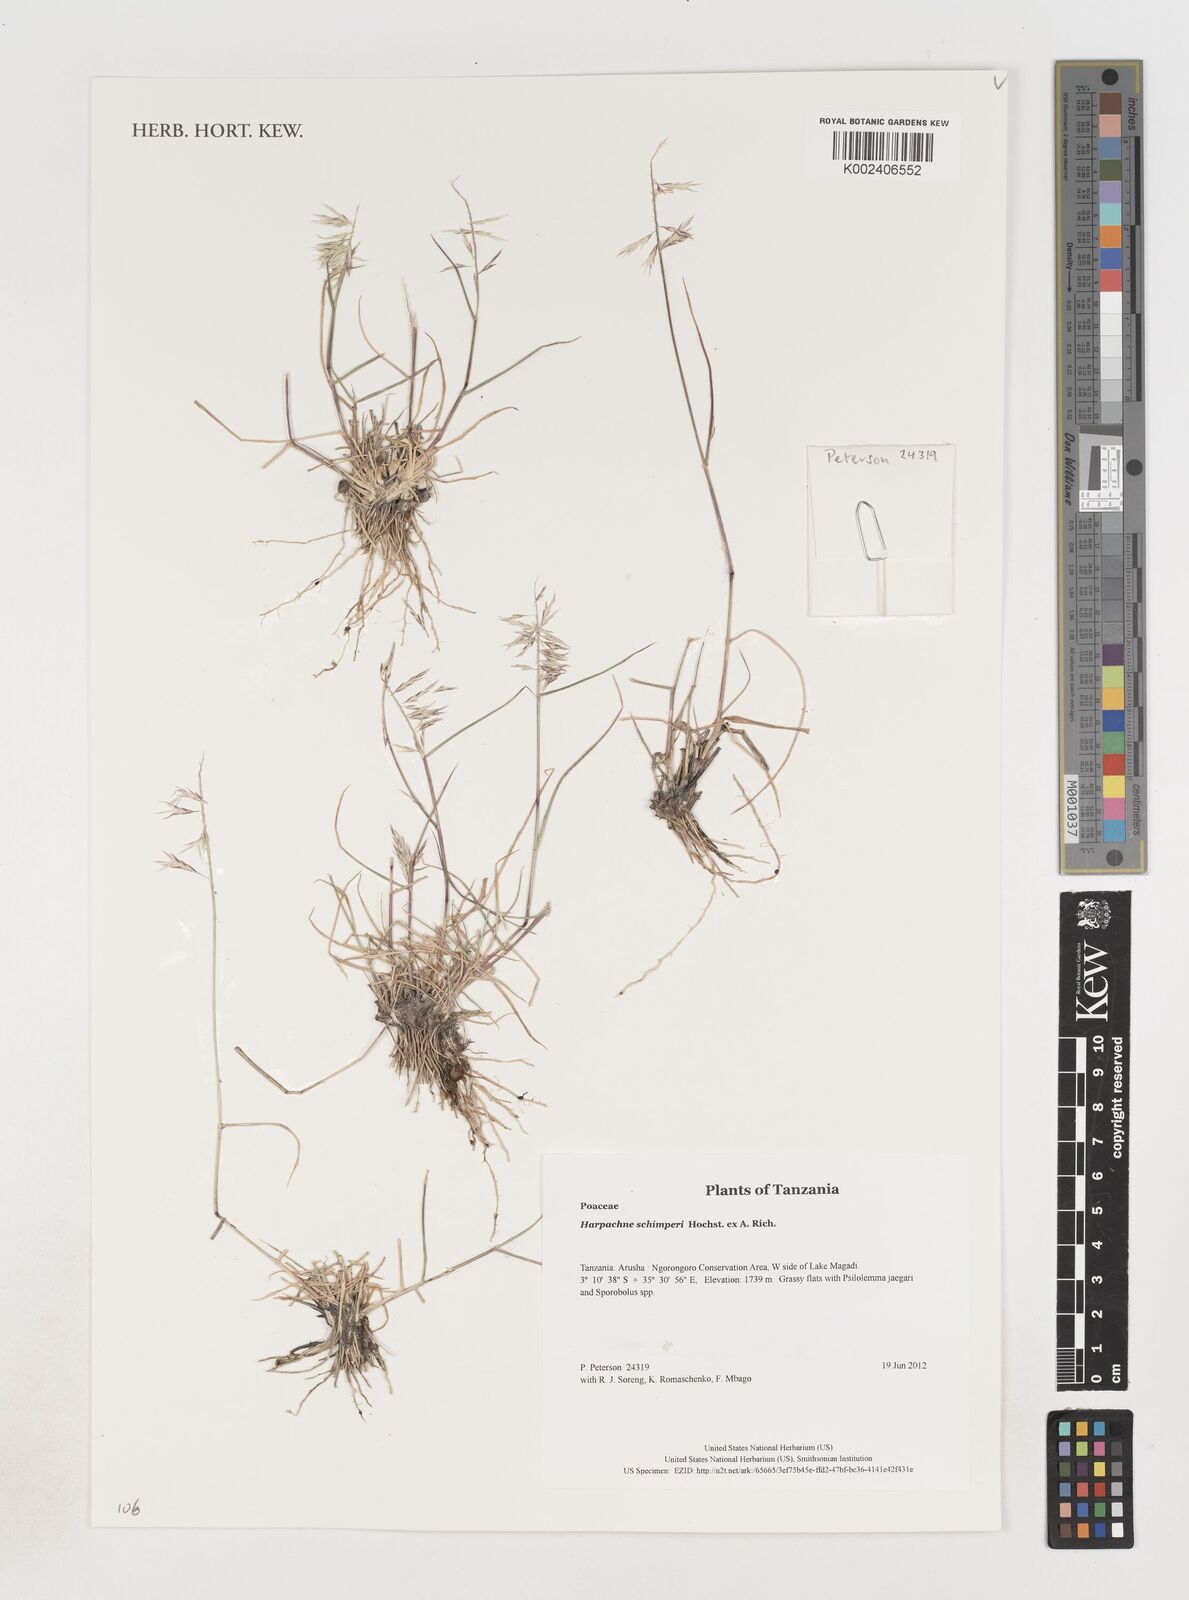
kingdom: Plantae
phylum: Tracheophyta
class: Liliopsida
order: Poales
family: Poaceae
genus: Harpachne
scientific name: Harpachne schimperi
